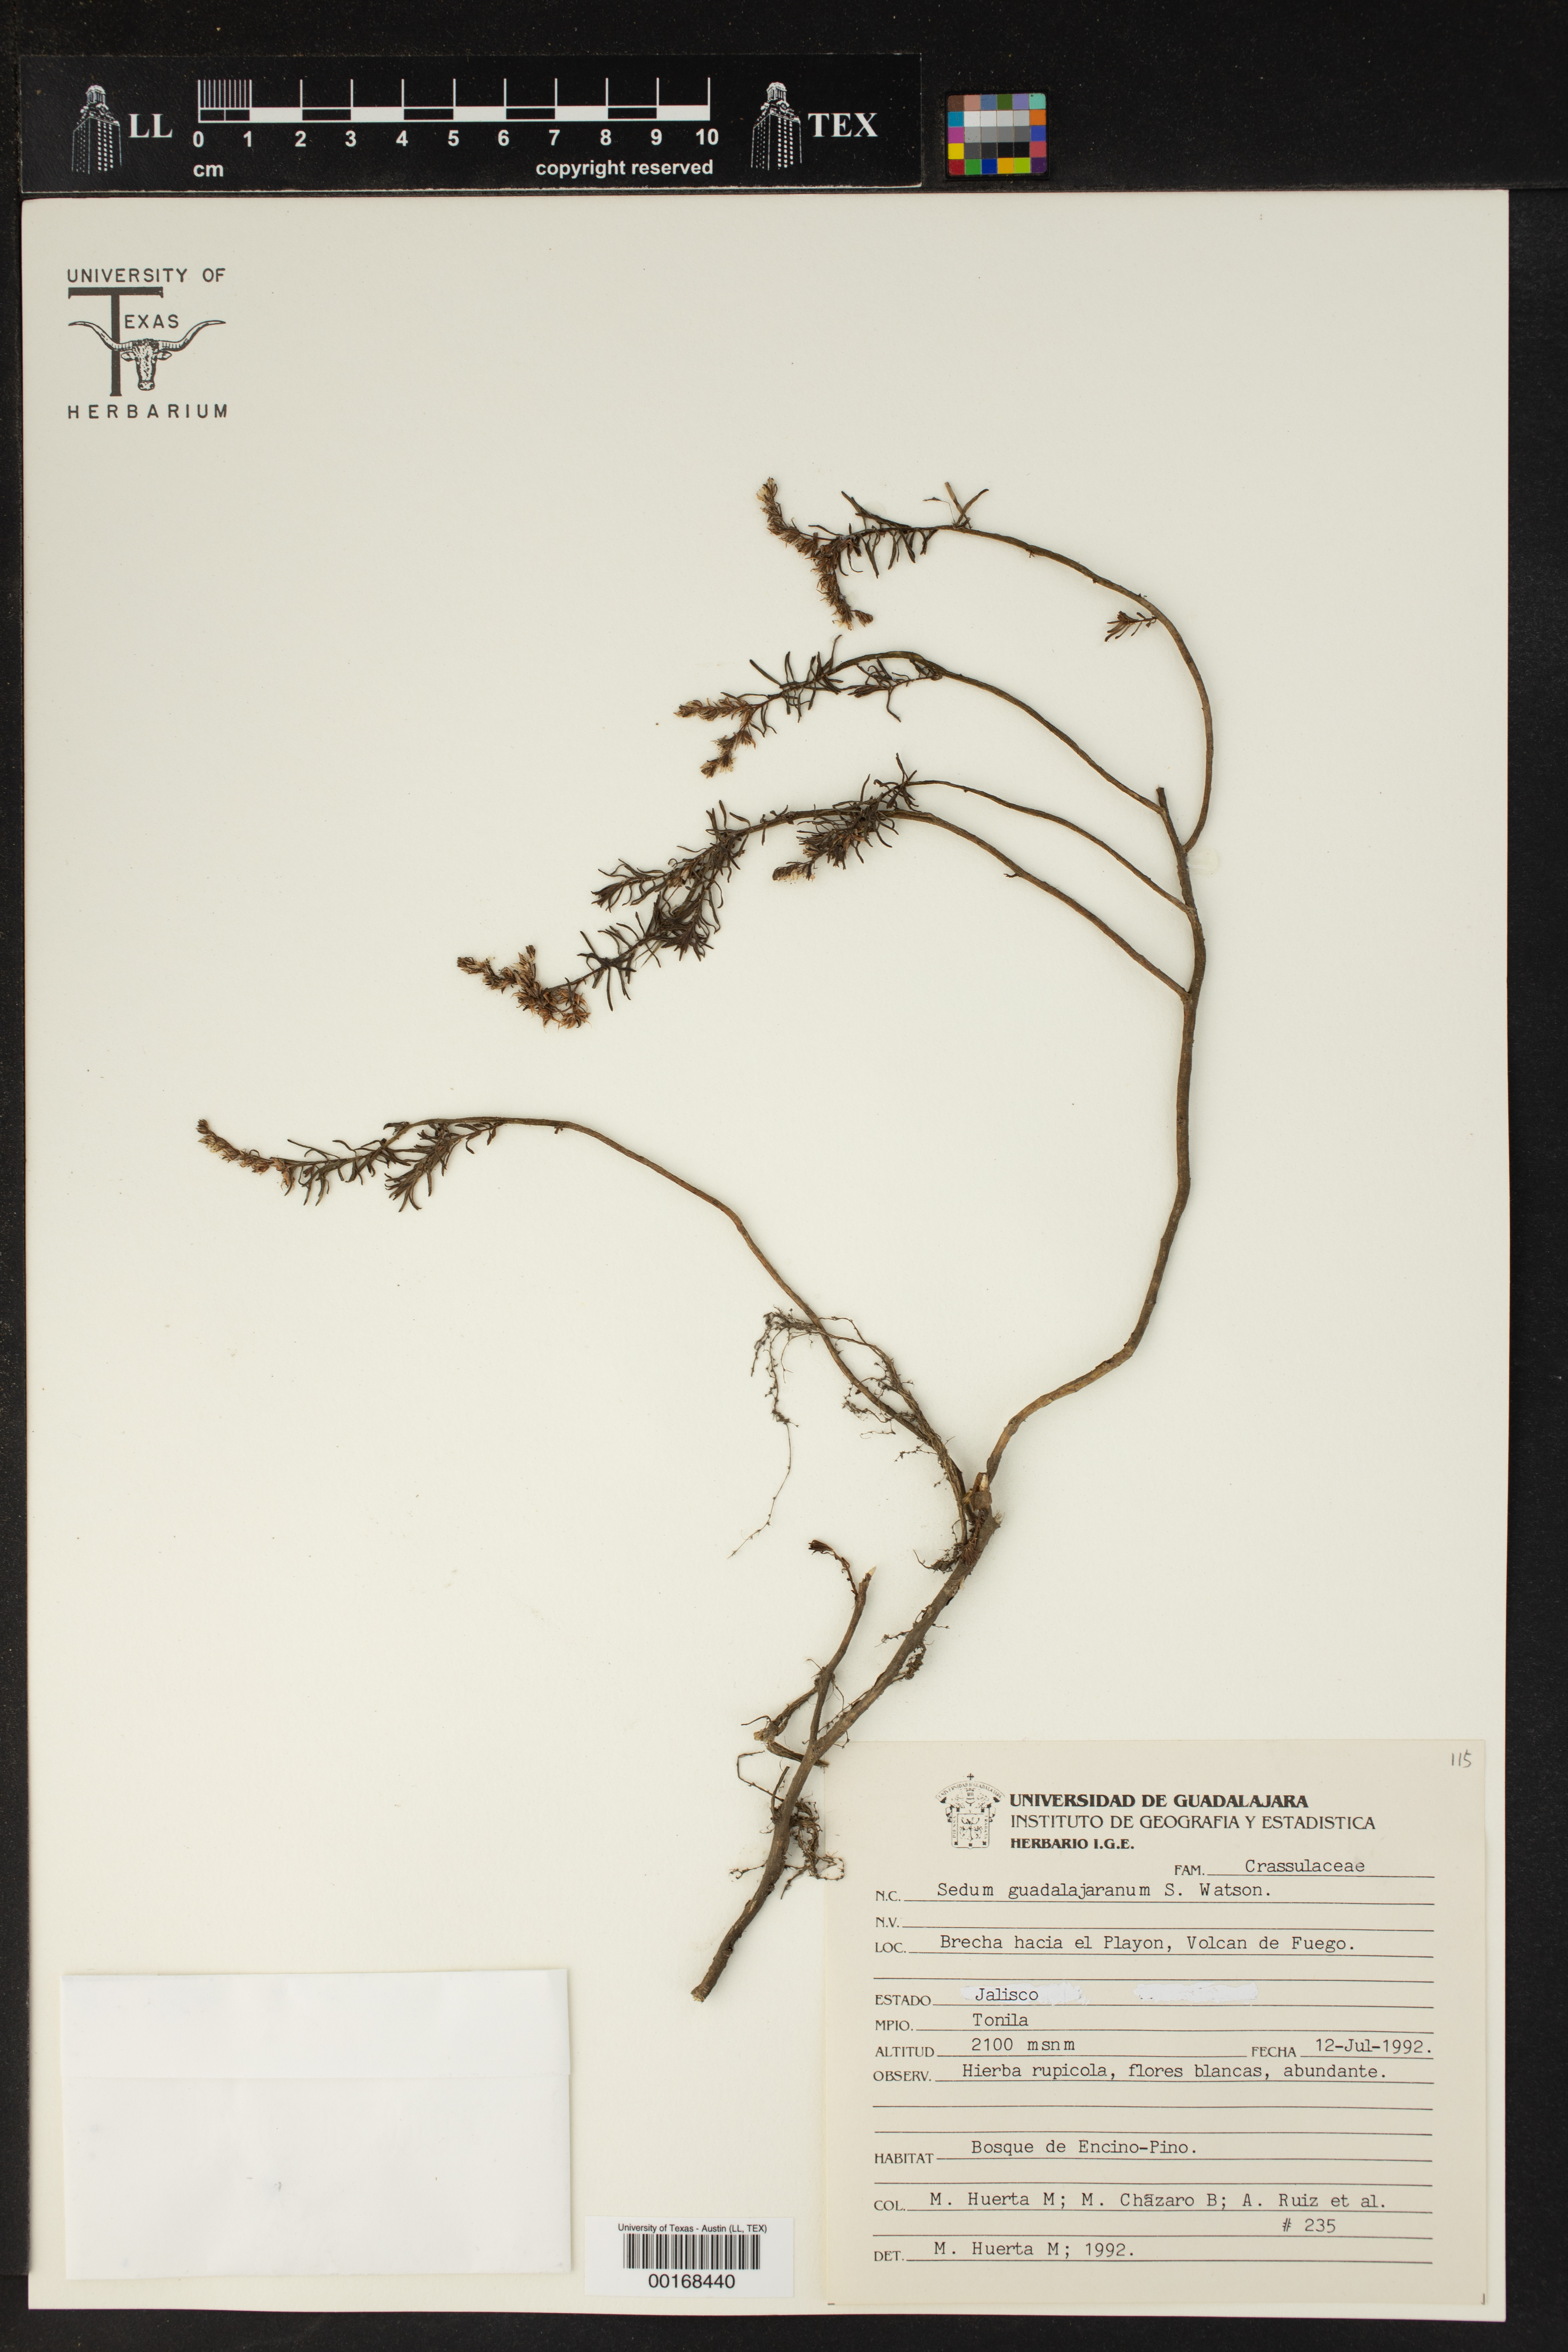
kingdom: Plantae
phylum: Tracheophyta
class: Magnoliopsida
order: Saxifragales
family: Crassulaceae
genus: Sedum
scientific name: Sedum guadalajaranum
